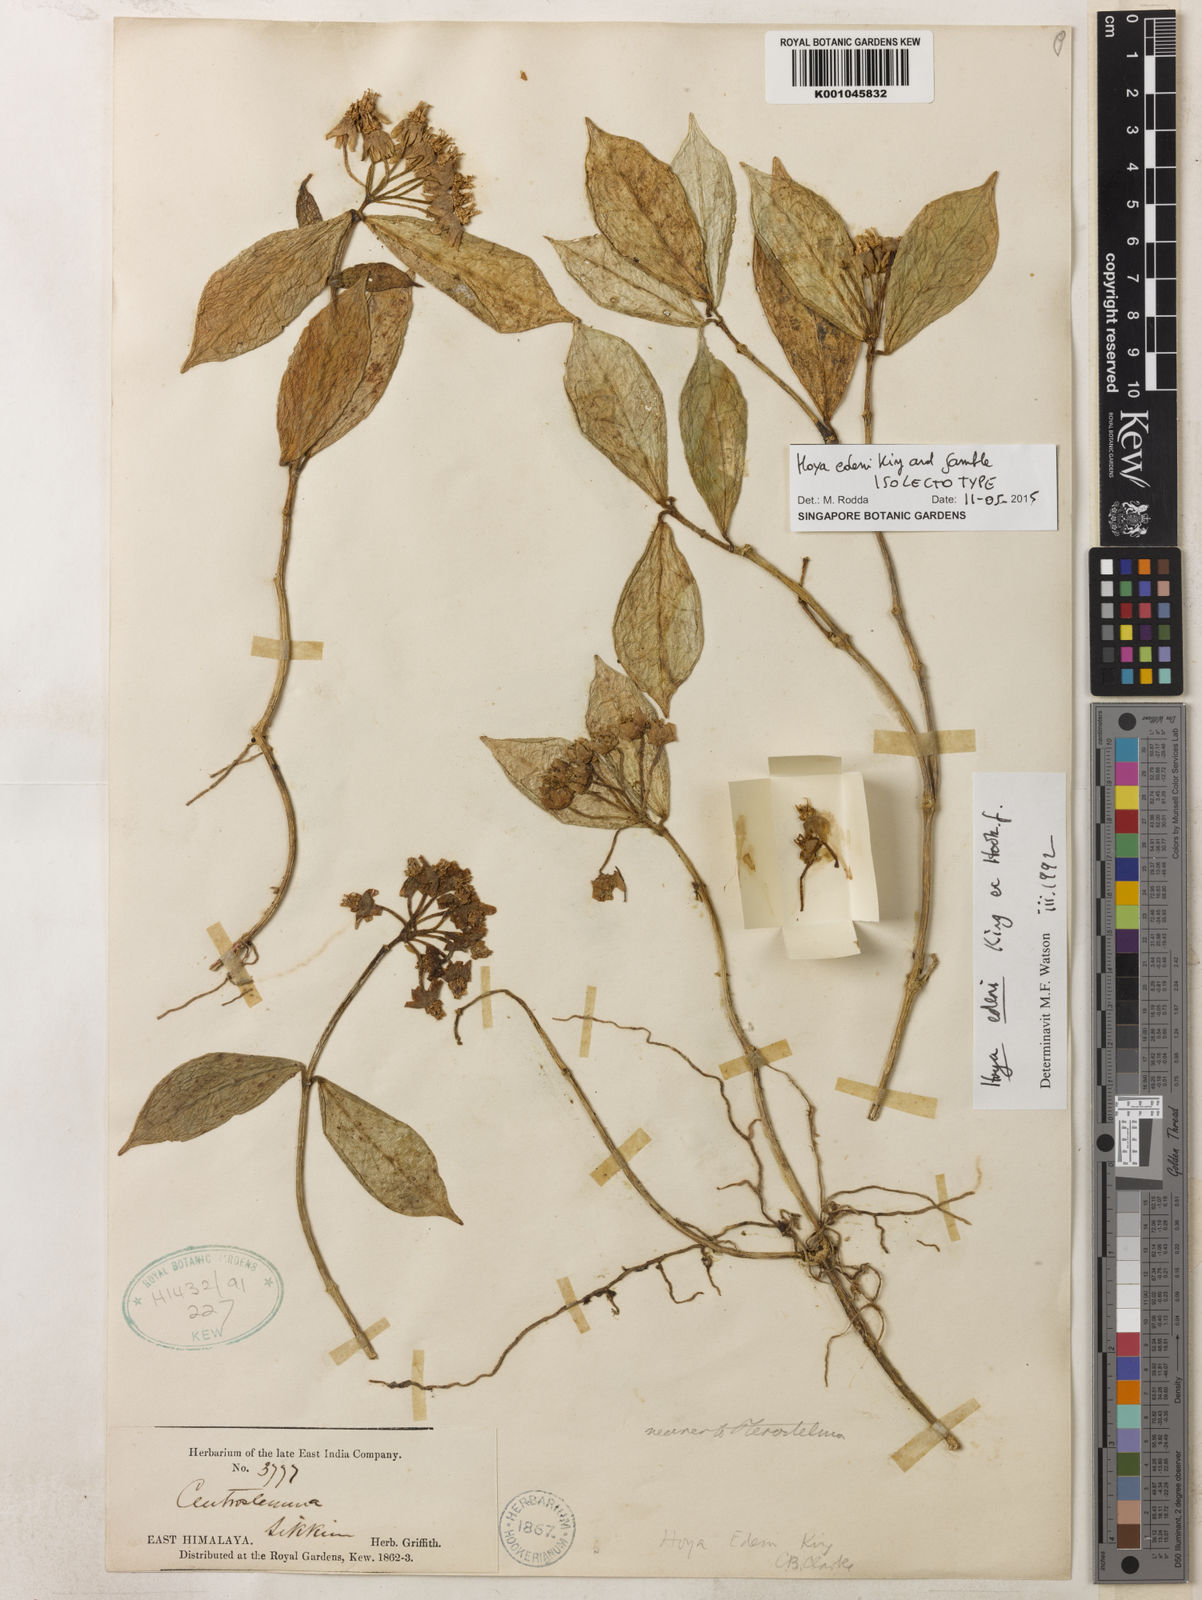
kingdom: Plantae
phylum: Tracheophyta
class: Magnoliopsida
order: Gentianales
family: Apocynaceae
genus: Hoya
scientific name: Hoya edeni
